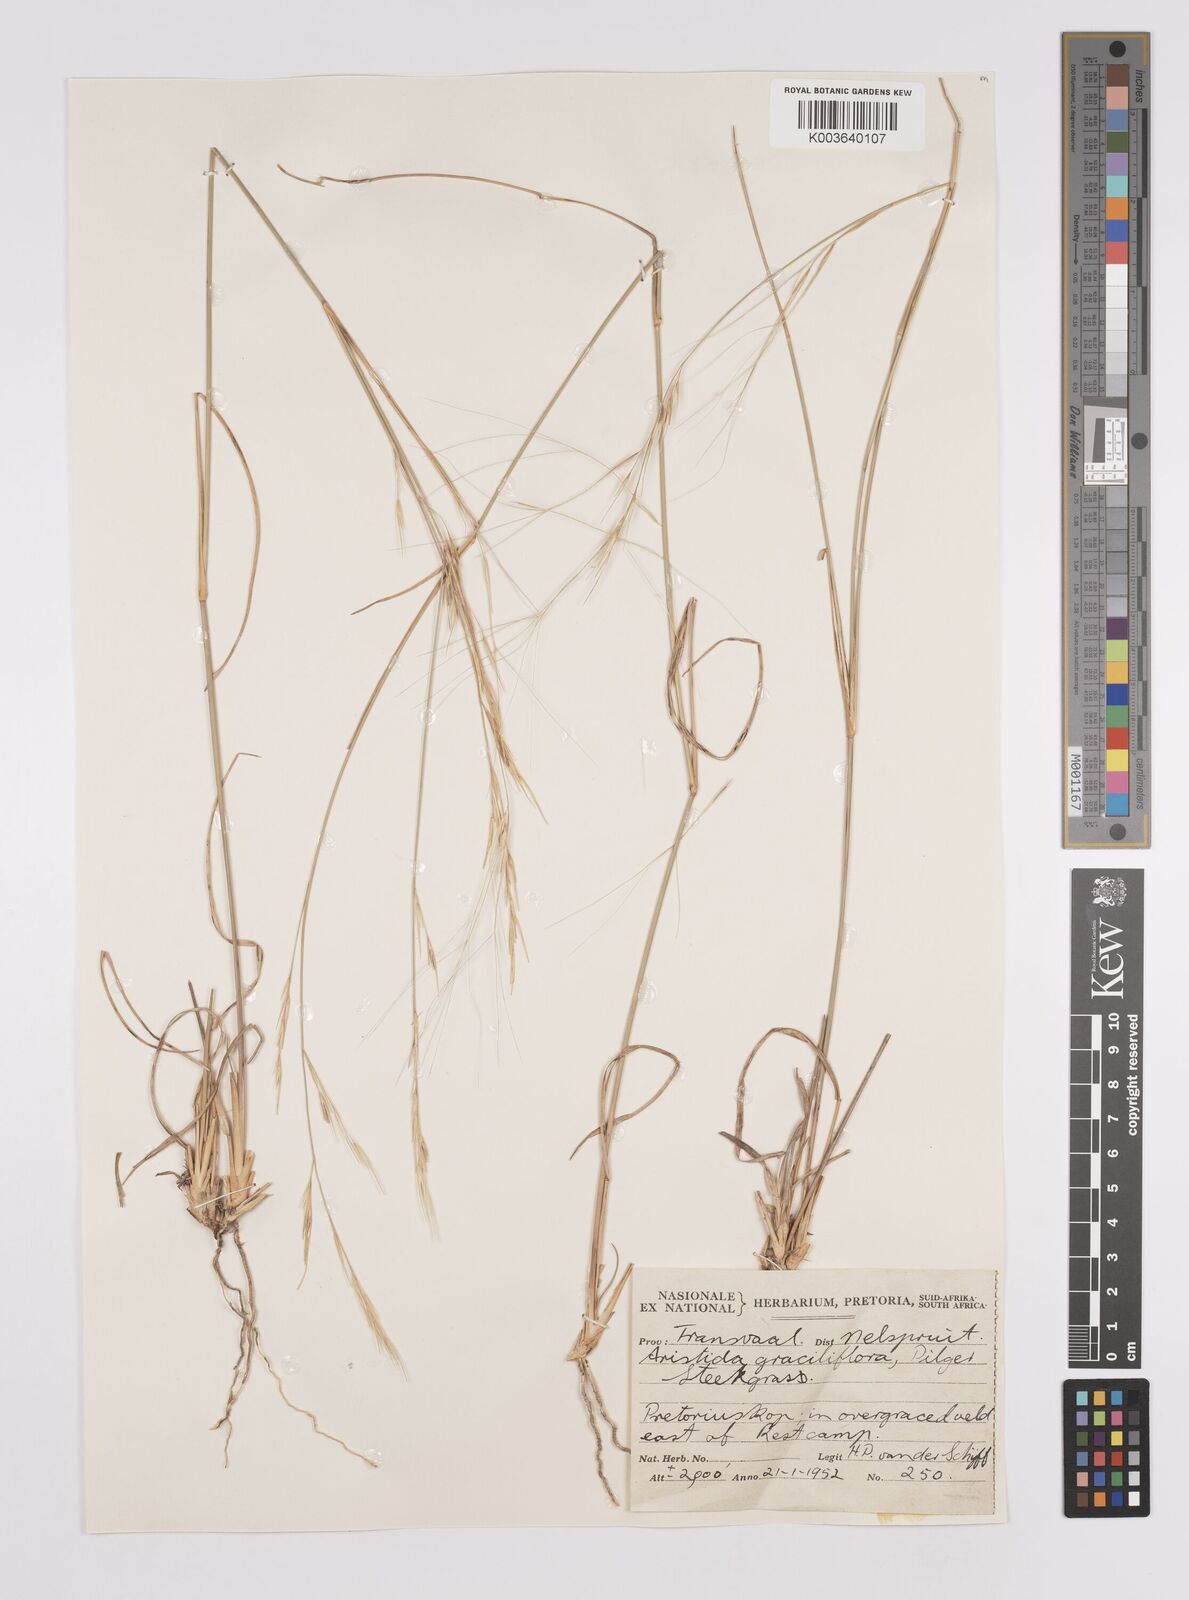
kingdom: Plantae
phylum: Tracheophyta
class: Liliopsida
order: Poales
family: Poaceae
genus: Aristida
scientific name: Aristida stipitata
